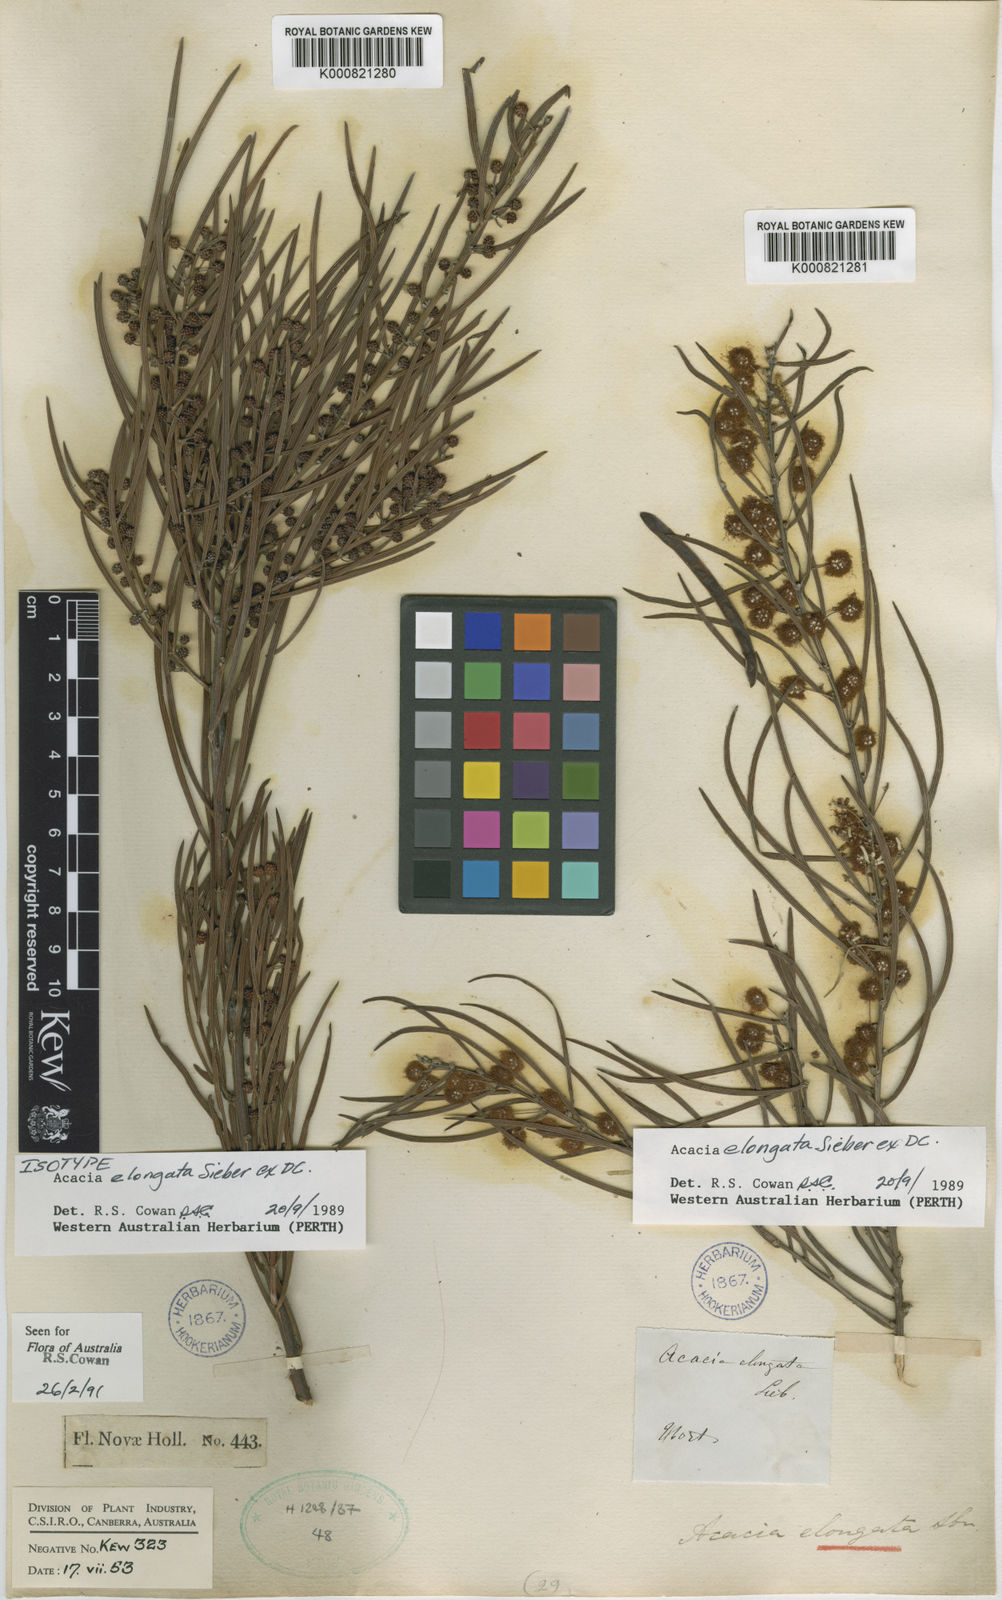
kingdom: Plantae
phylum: Tracheophyta
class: Magnoliopsida
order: Fabales
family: Fabaceae
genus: Acacia
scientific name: Acacia johnsonii
